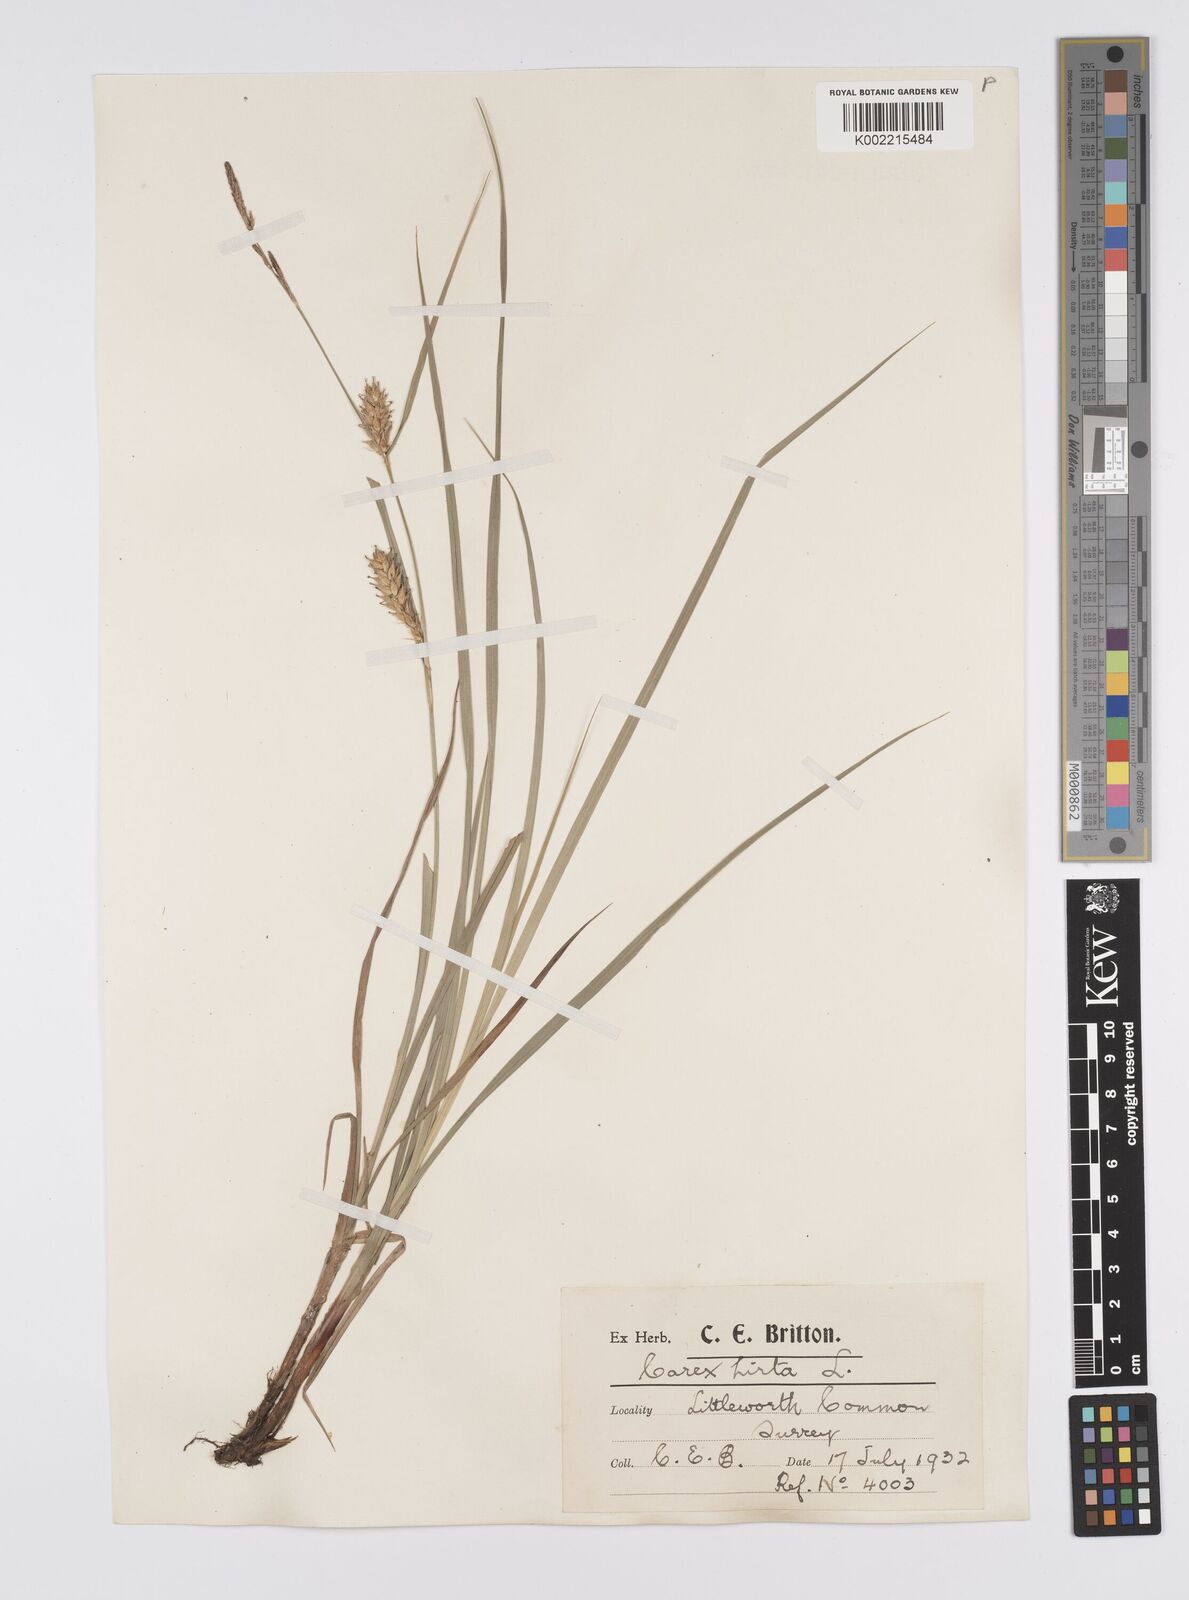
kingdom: Plantae
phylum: Tracheophyta
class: Liliopsida
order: Poales
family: Cyperaceae
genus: Carex
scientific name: Carex hirta
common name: Hairy sedge
